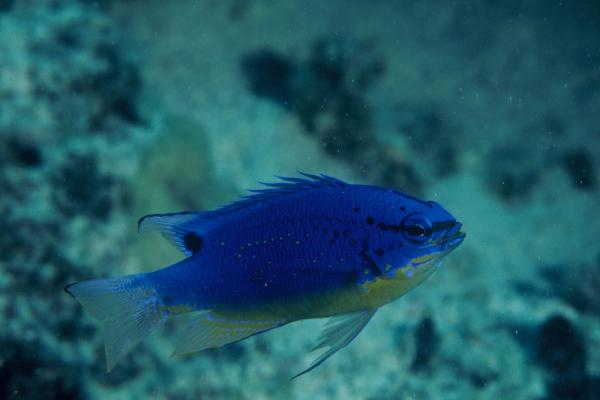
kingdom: Animalia
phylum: Chordata
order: Perciformes
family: Pomacentridae
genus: Chrysiptera
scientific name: Chrysiptera taupou
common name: Fiji damsel
